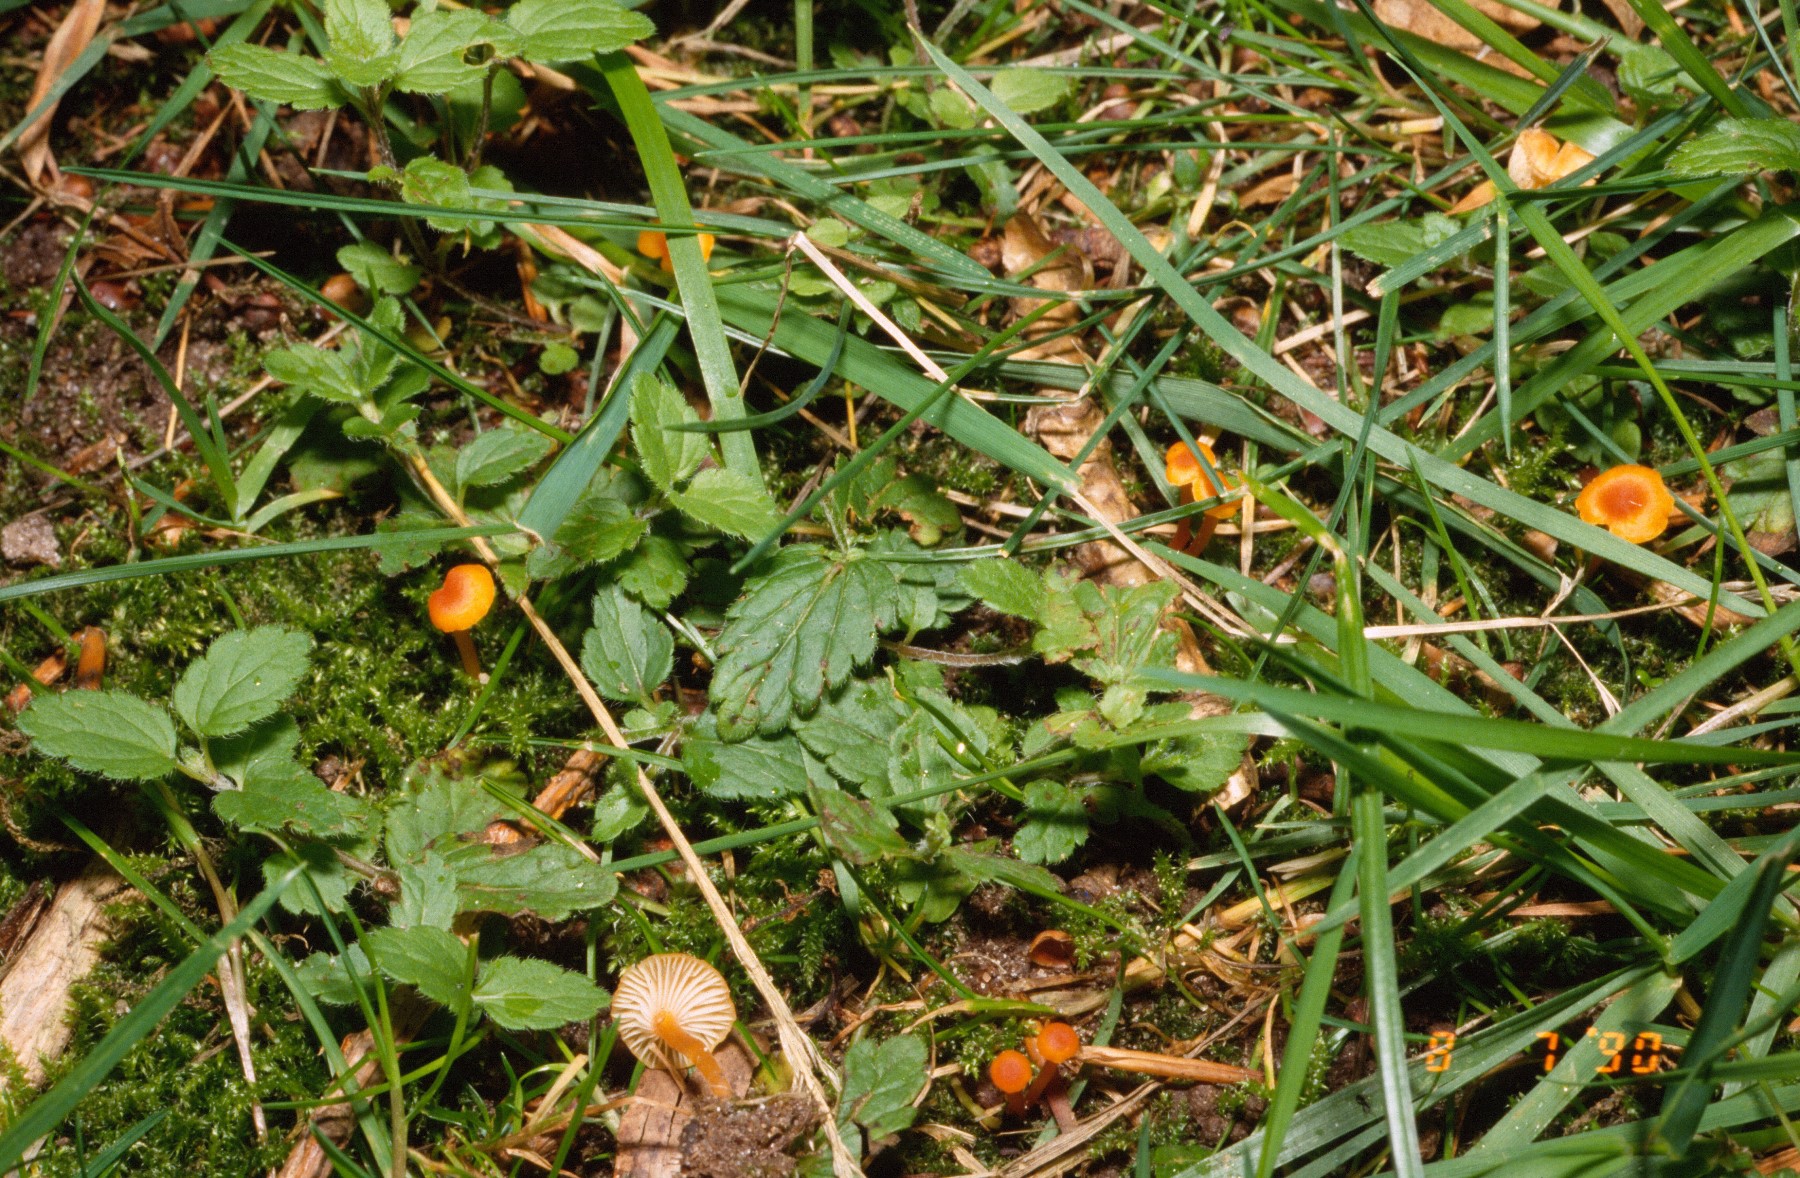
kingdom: Fungi
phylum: Basidiomycota
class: Agaricomycetes
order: Hymenochaetales
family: Rickenellaceae
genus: Rickenella
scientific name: Rickenella fibula
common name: orange mosnavlehat
